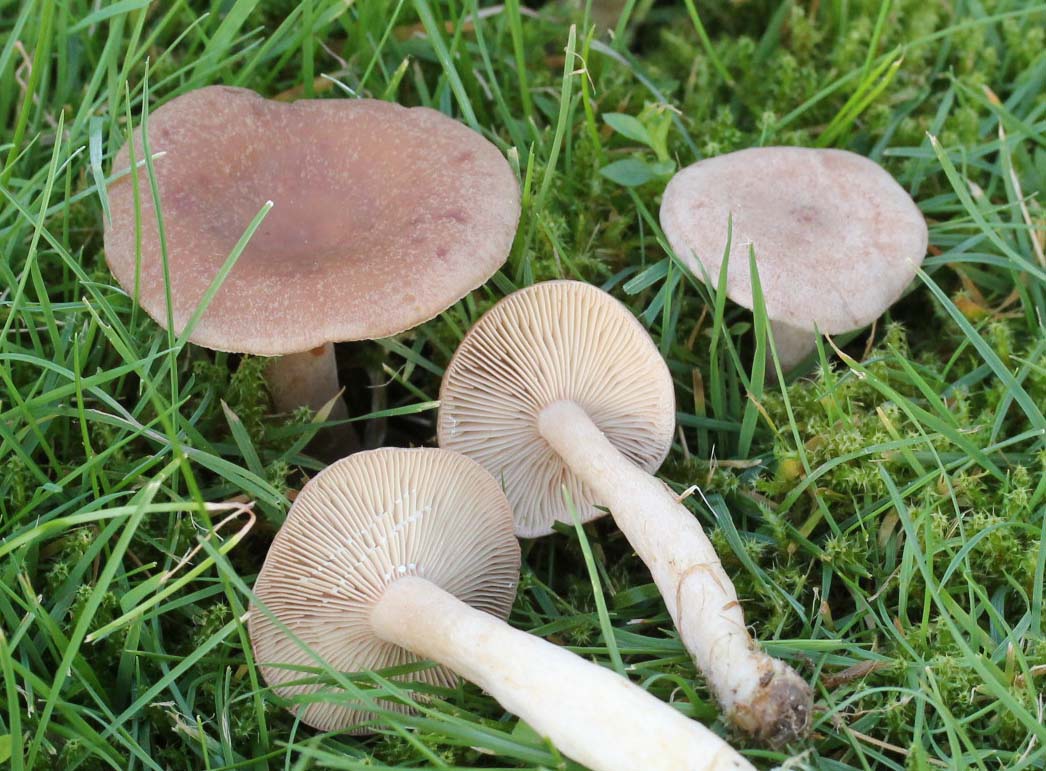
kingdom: Fungi
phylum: Basidiomycota
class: Agaricomycetes
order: Russulales
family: Russulaceae
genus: Lactarius
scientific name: Lactarius glyciosmus
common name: kokos-mælkehat
